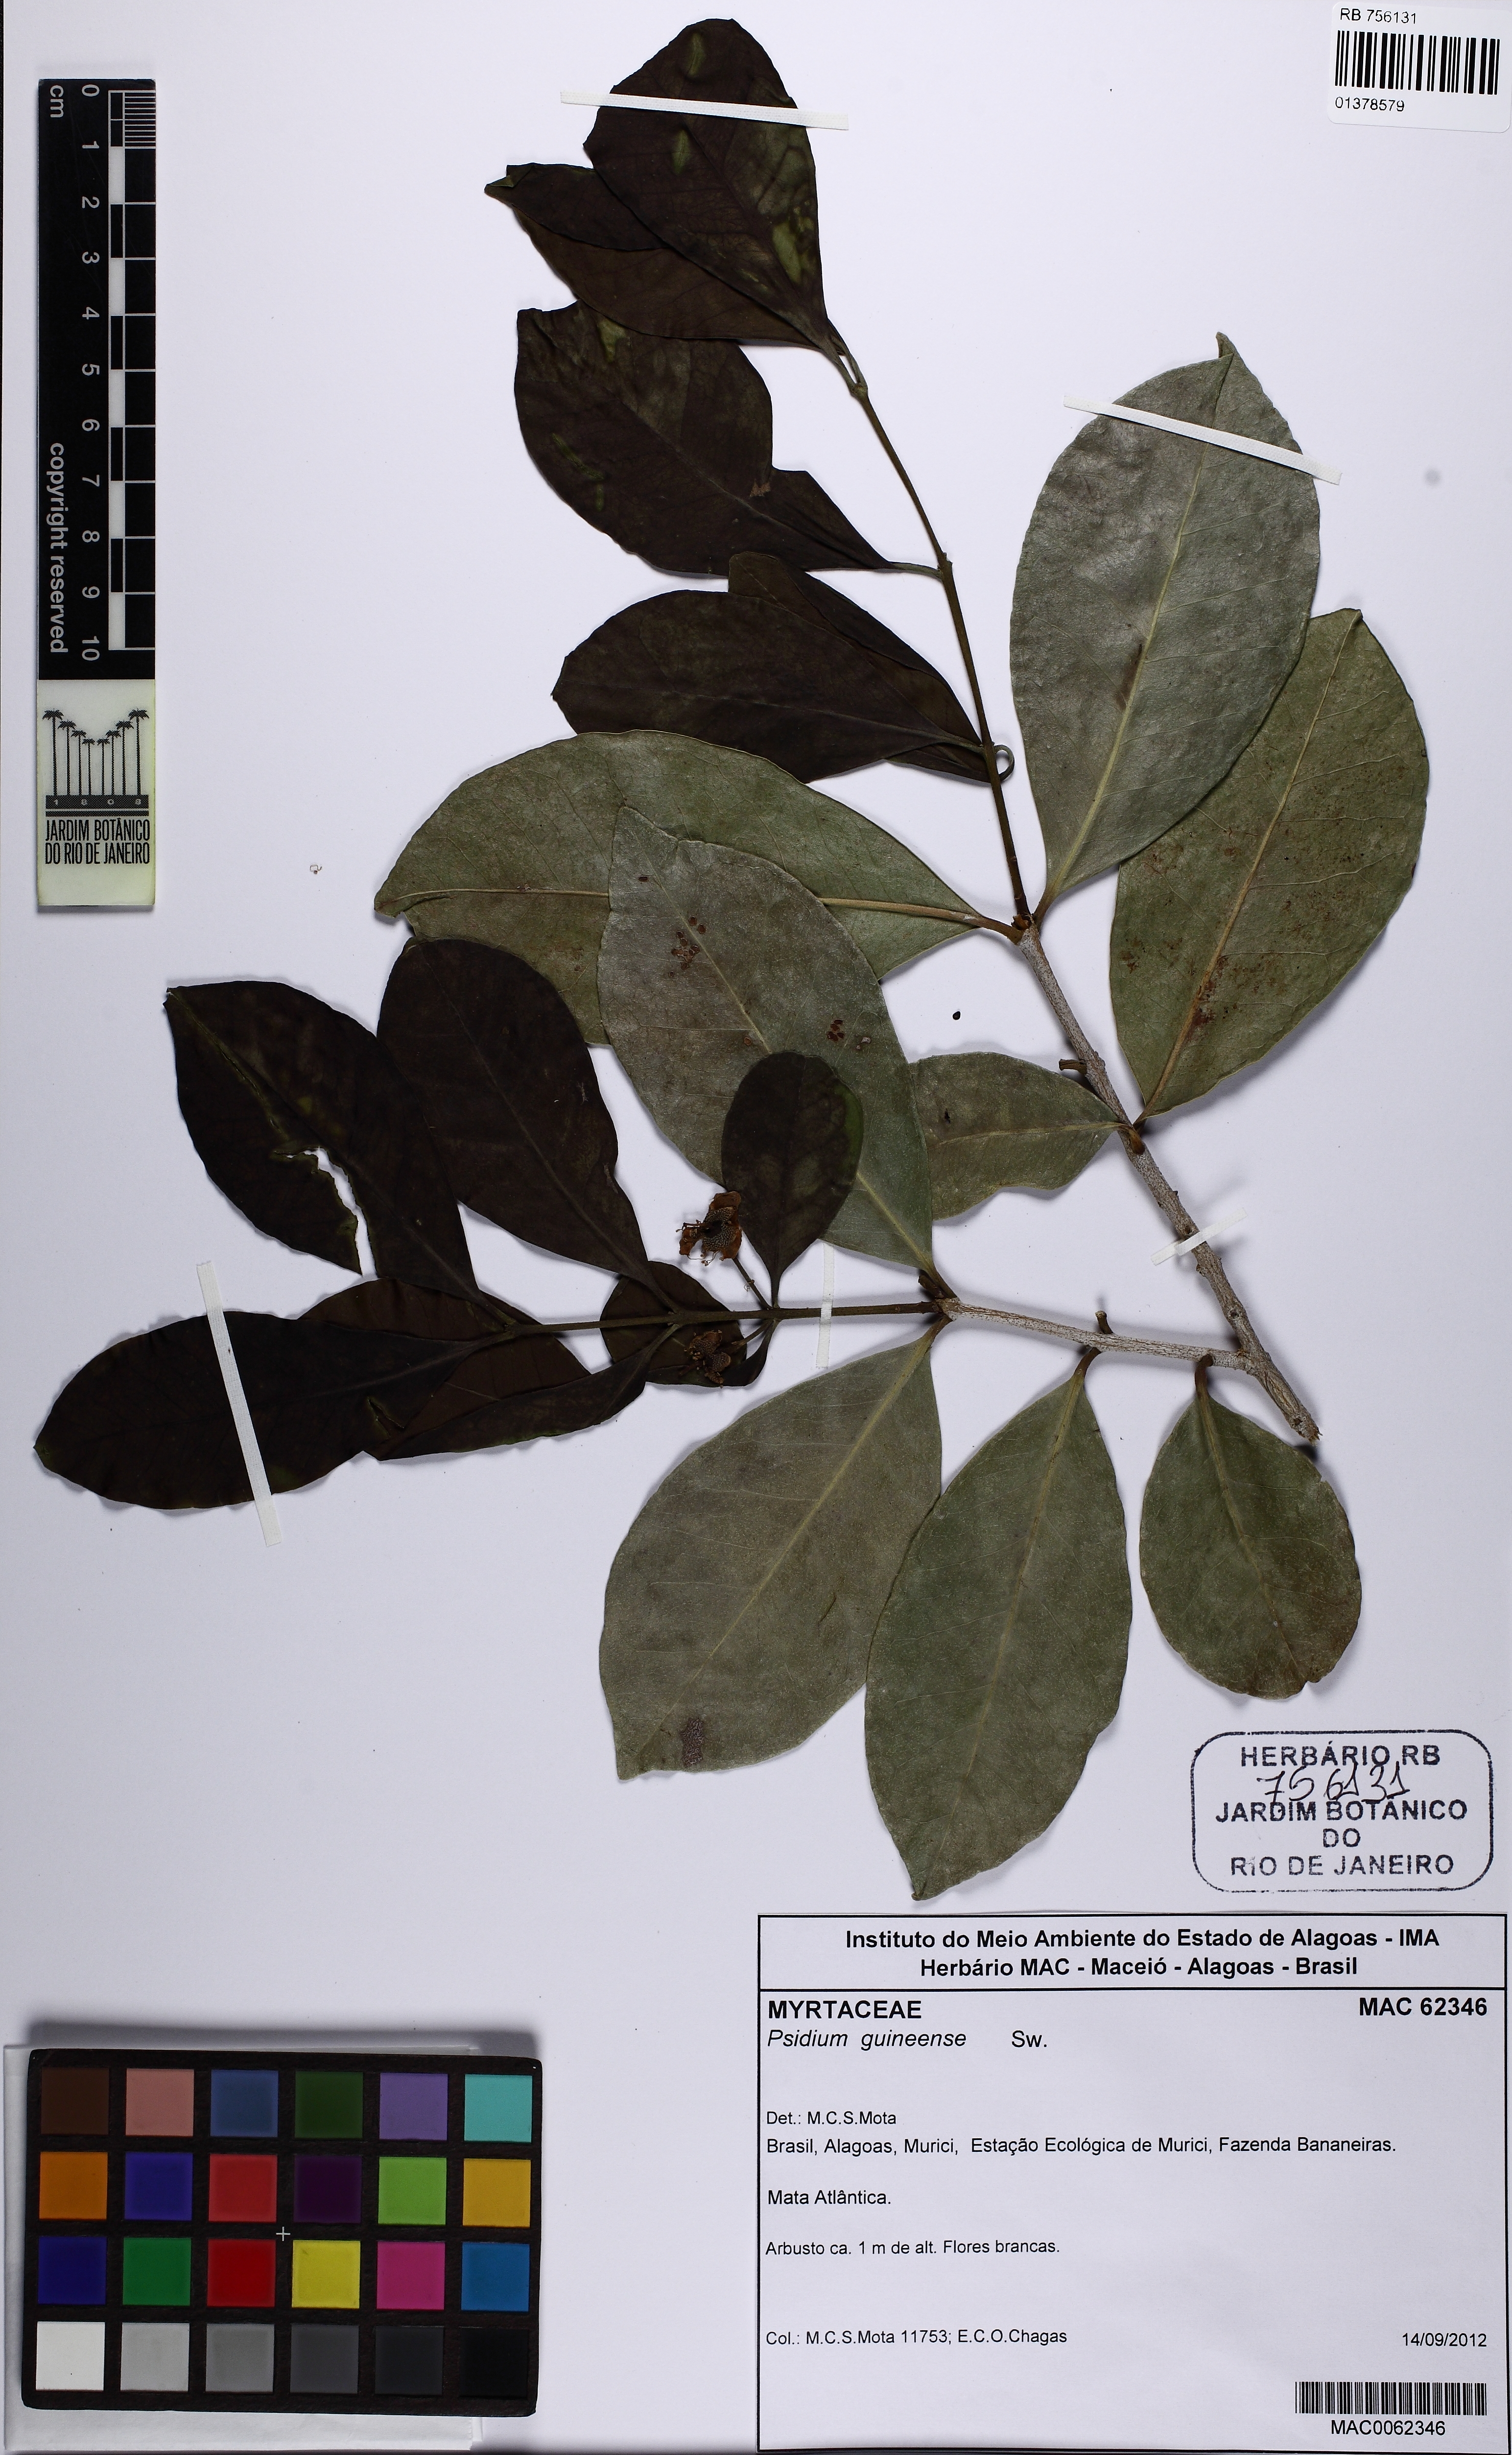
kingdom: Plantae
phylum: Tracheophyta
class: Magnoliopsida
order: Myrtales
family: Myrtaceae
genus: Psidium
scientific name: Psidium guineense
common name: Brazilian guava
